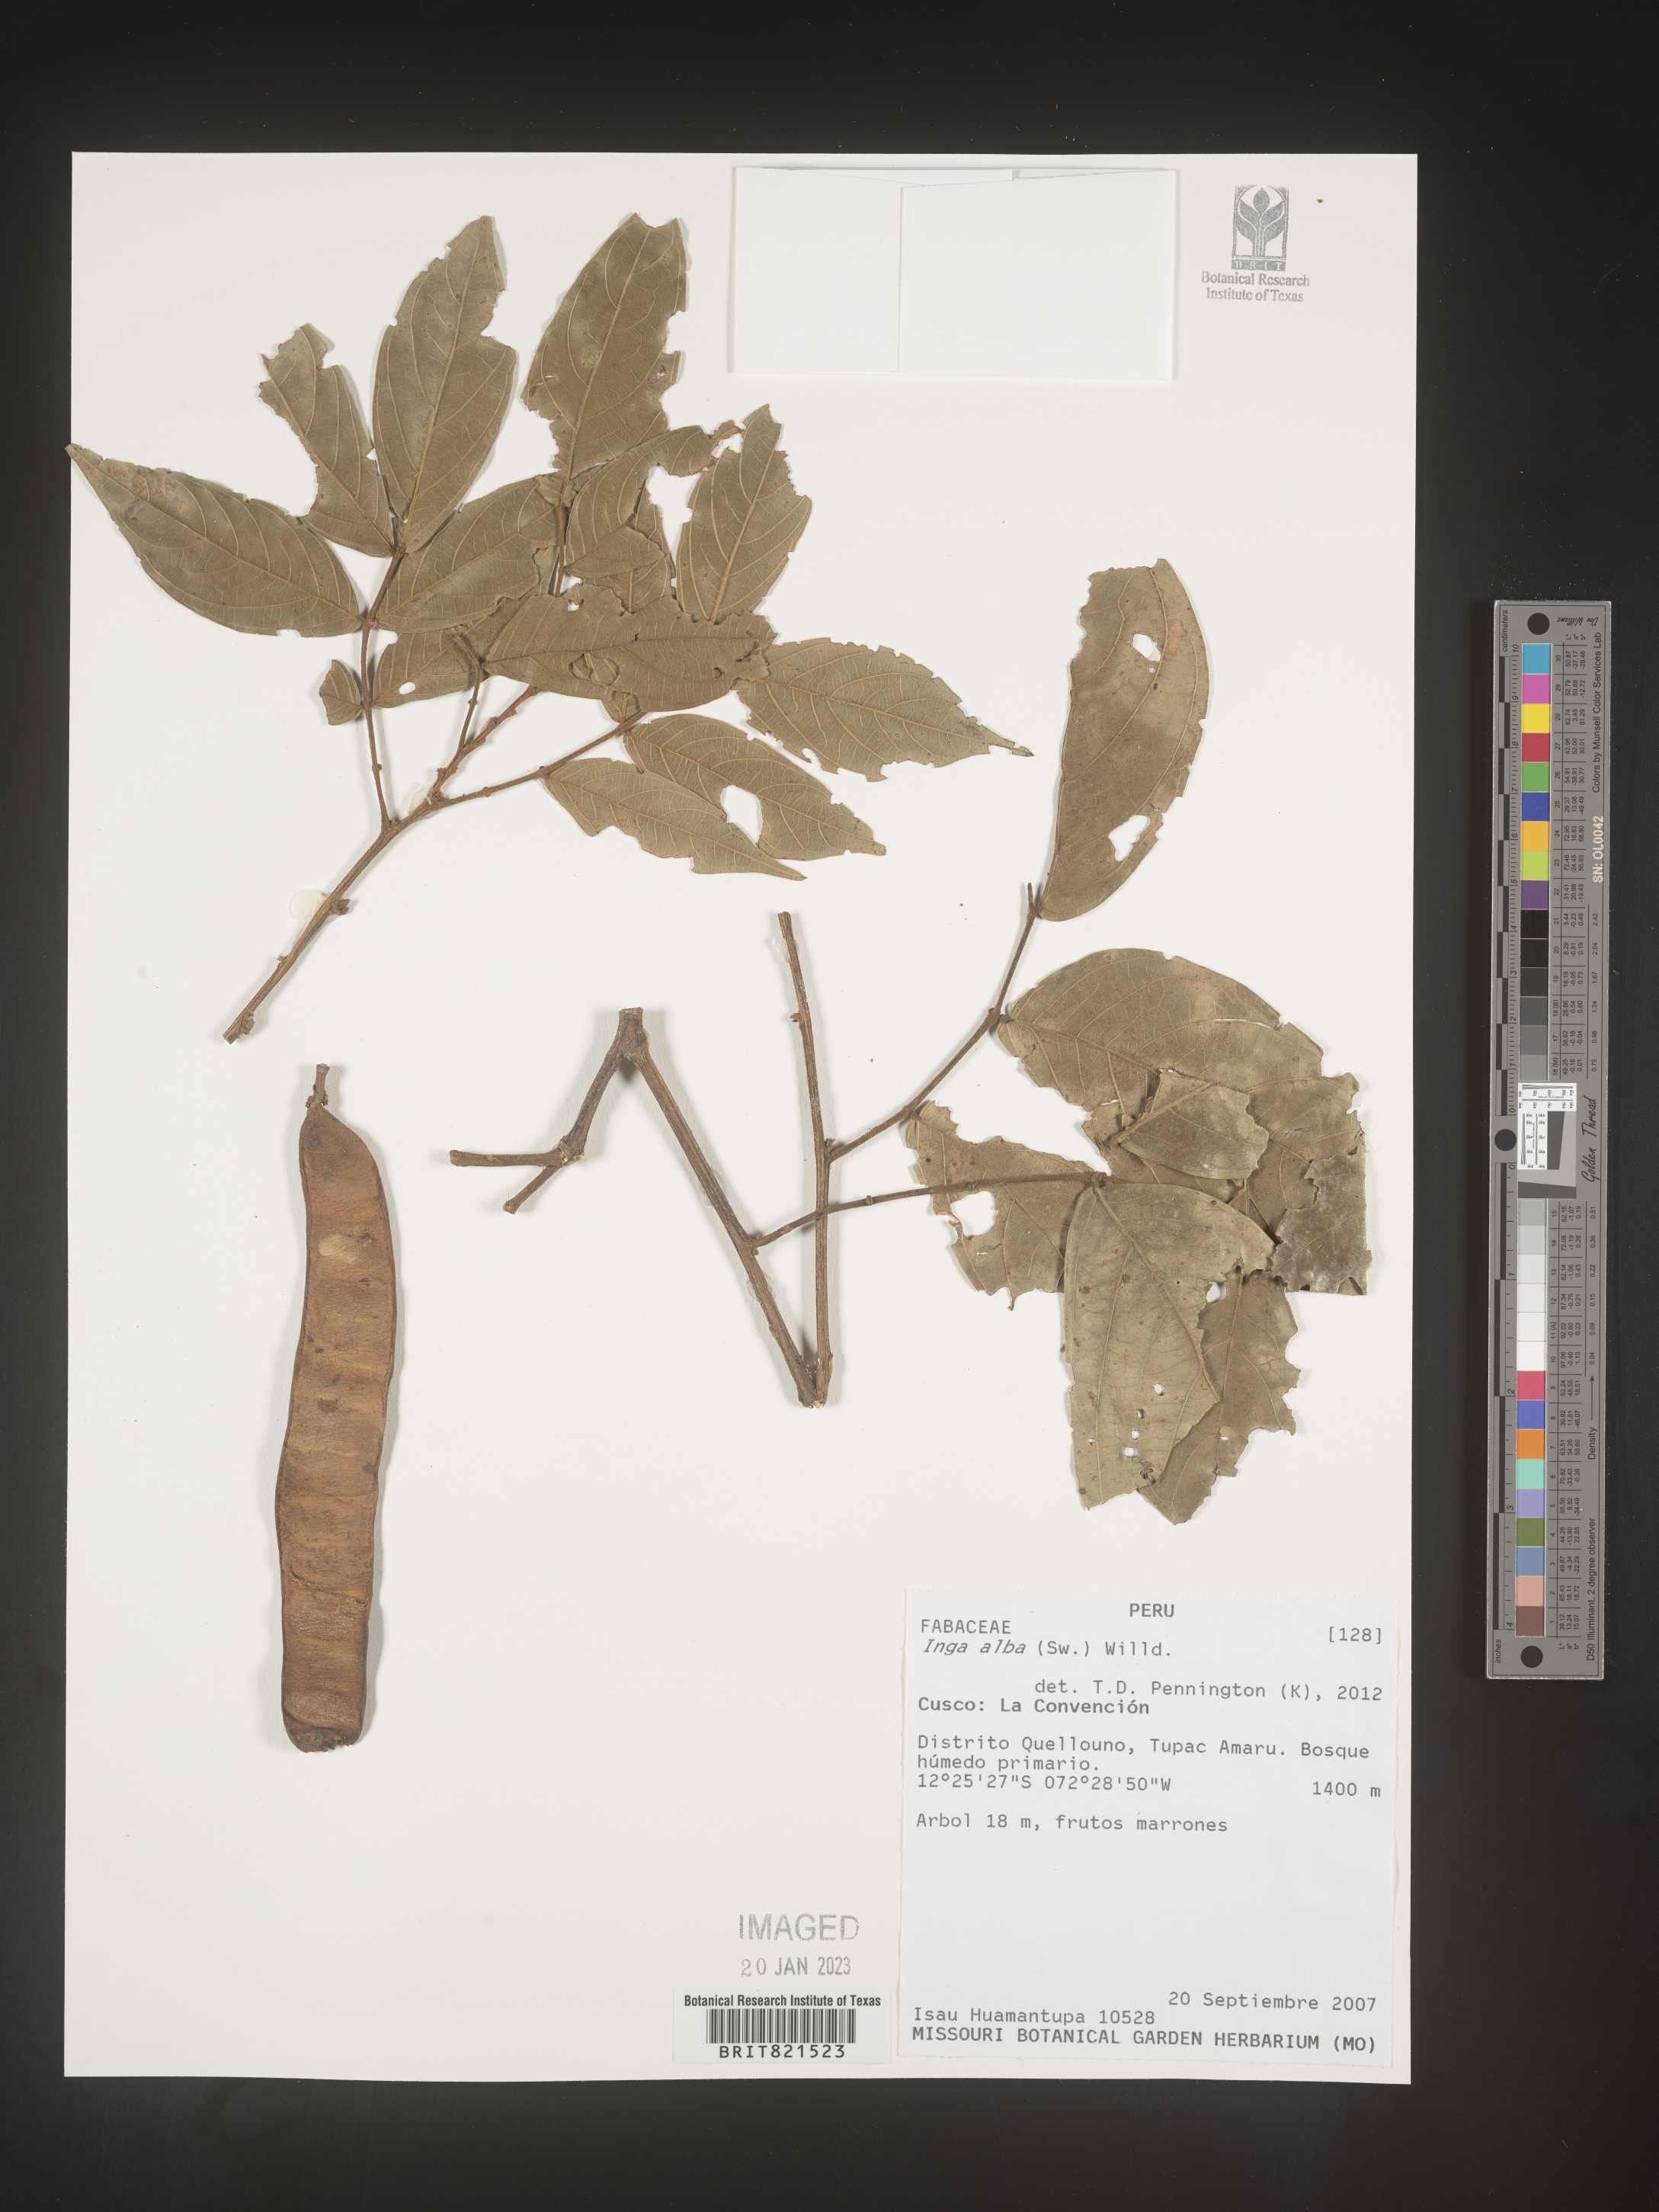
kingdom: Plantae
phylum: Tracheophyta
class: Magnoliopsida
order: Fabales
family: Fabaceae
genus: Inga
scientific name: Inga
